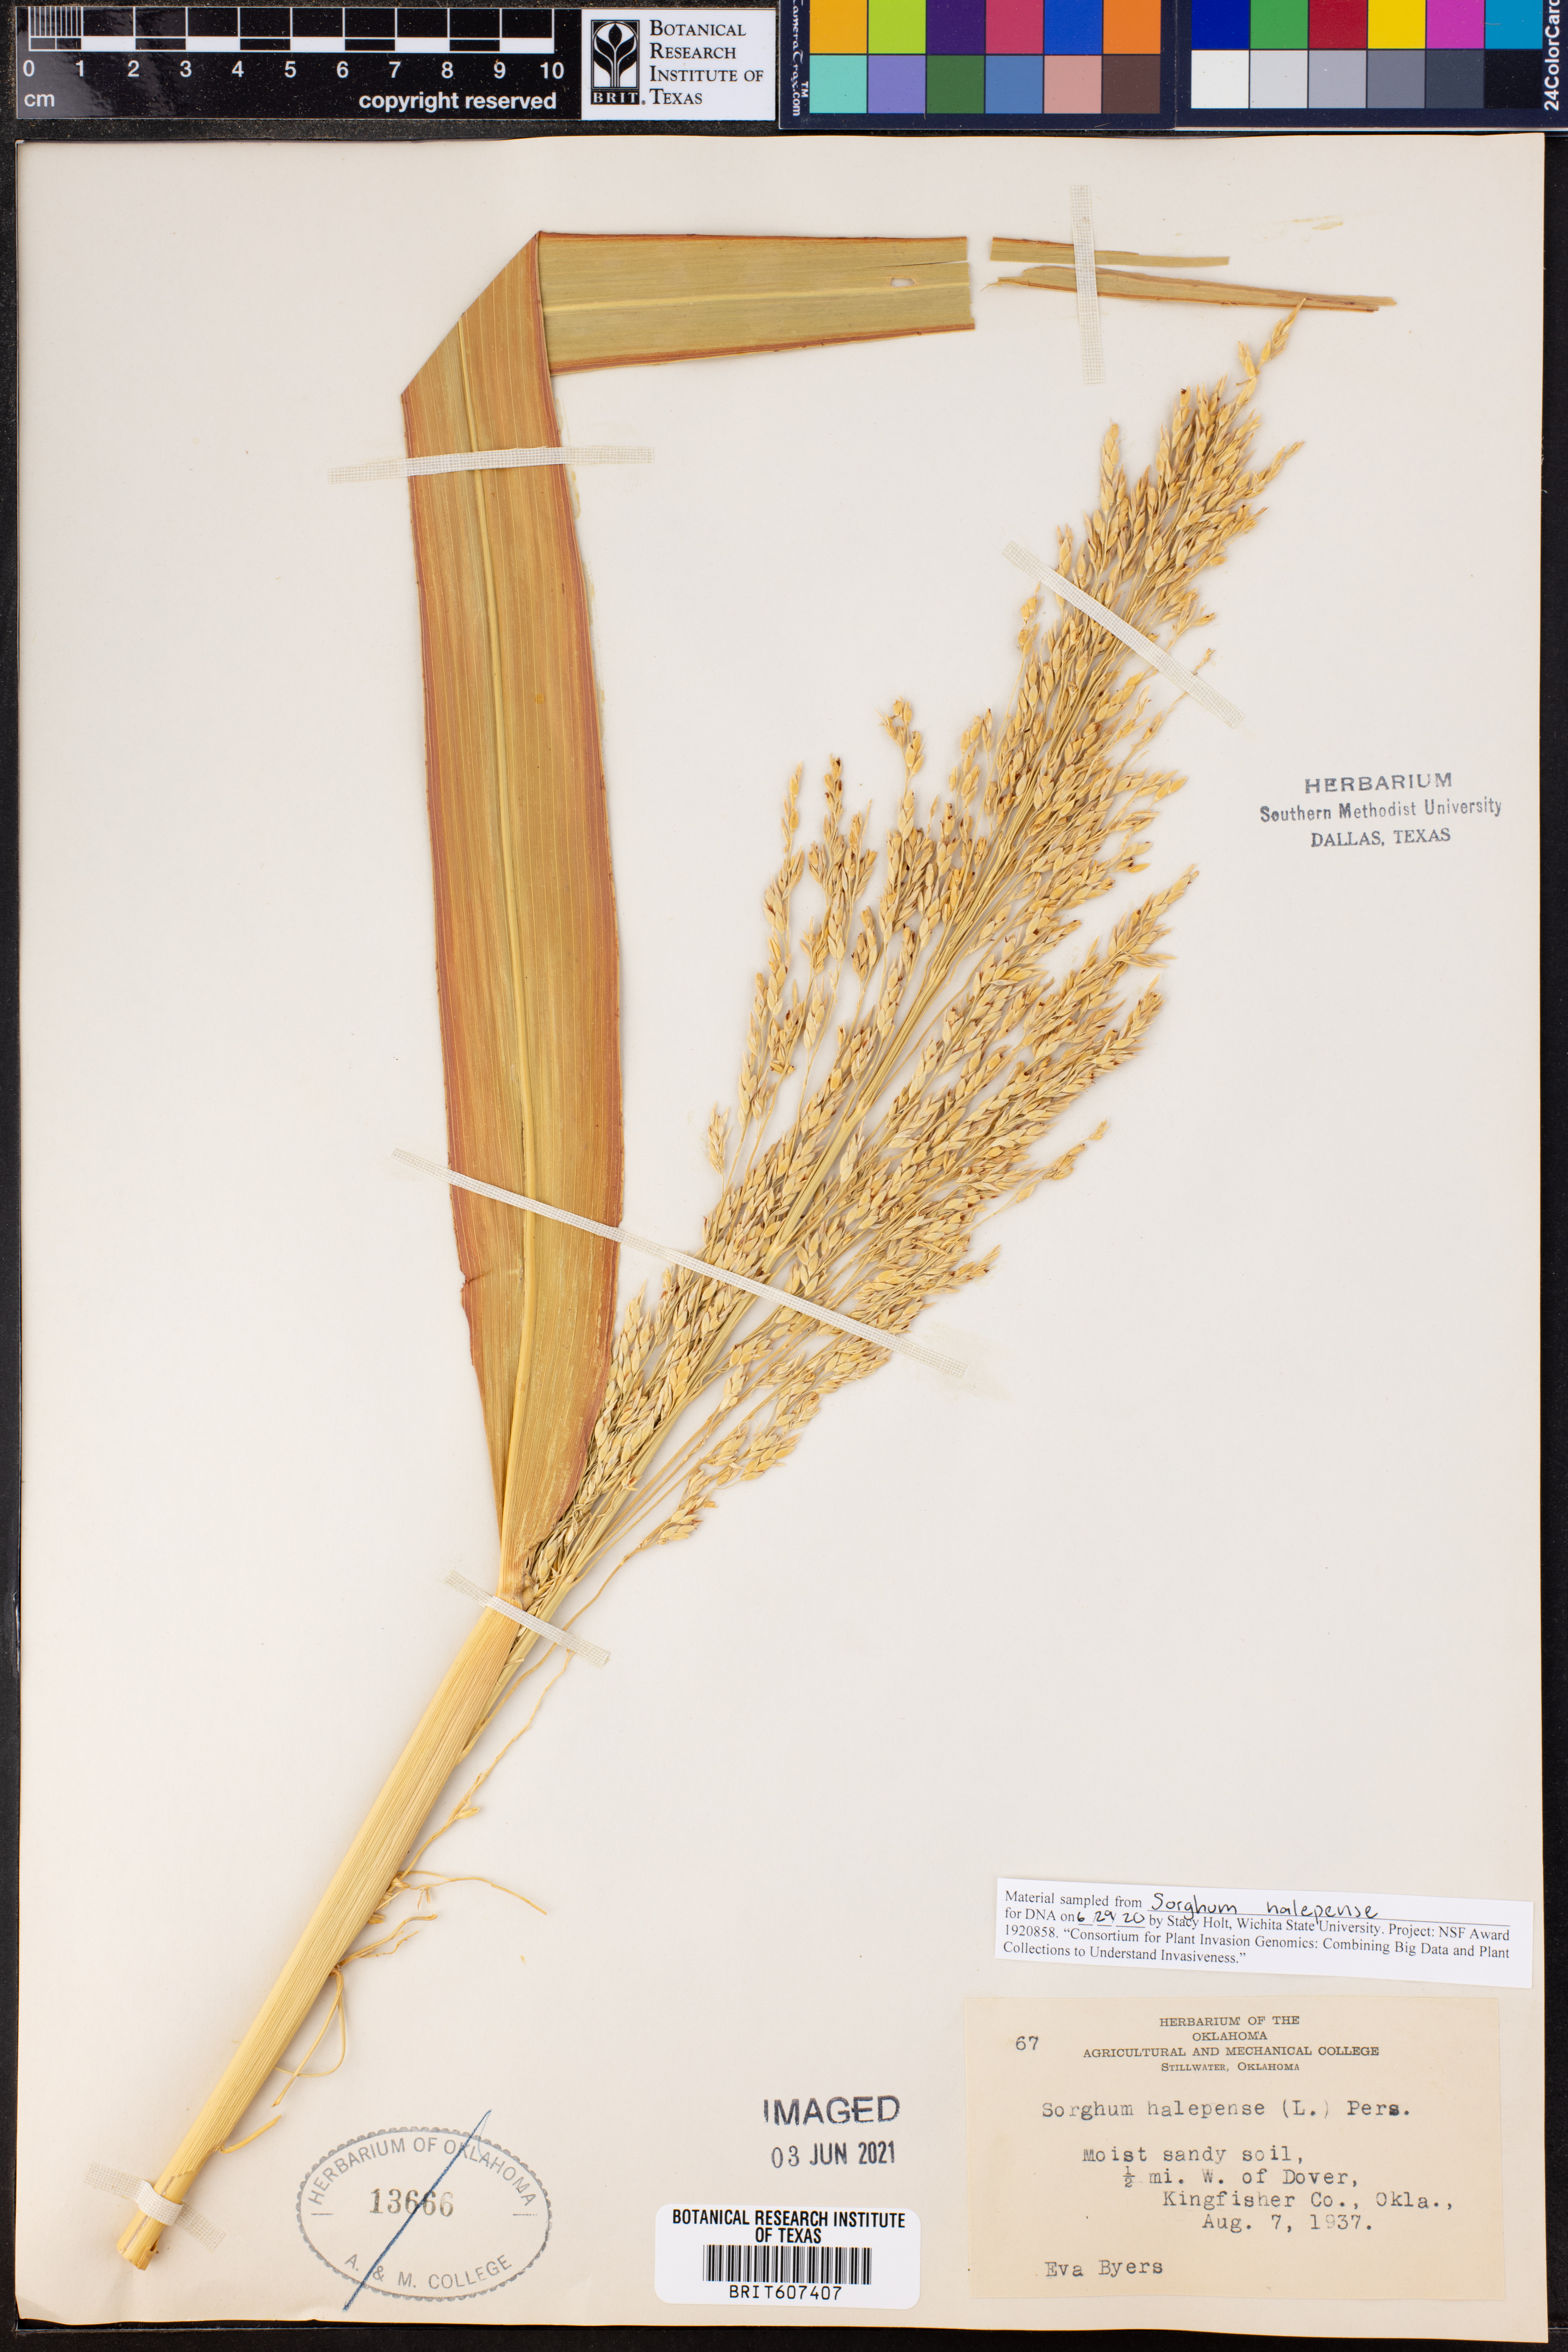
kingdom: Plantae
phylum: Tracheophyta
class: Liliopsida
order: Poales
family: Poaceae
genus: Sorghum
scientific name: Sorghum halepense
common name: Johnson-grass
